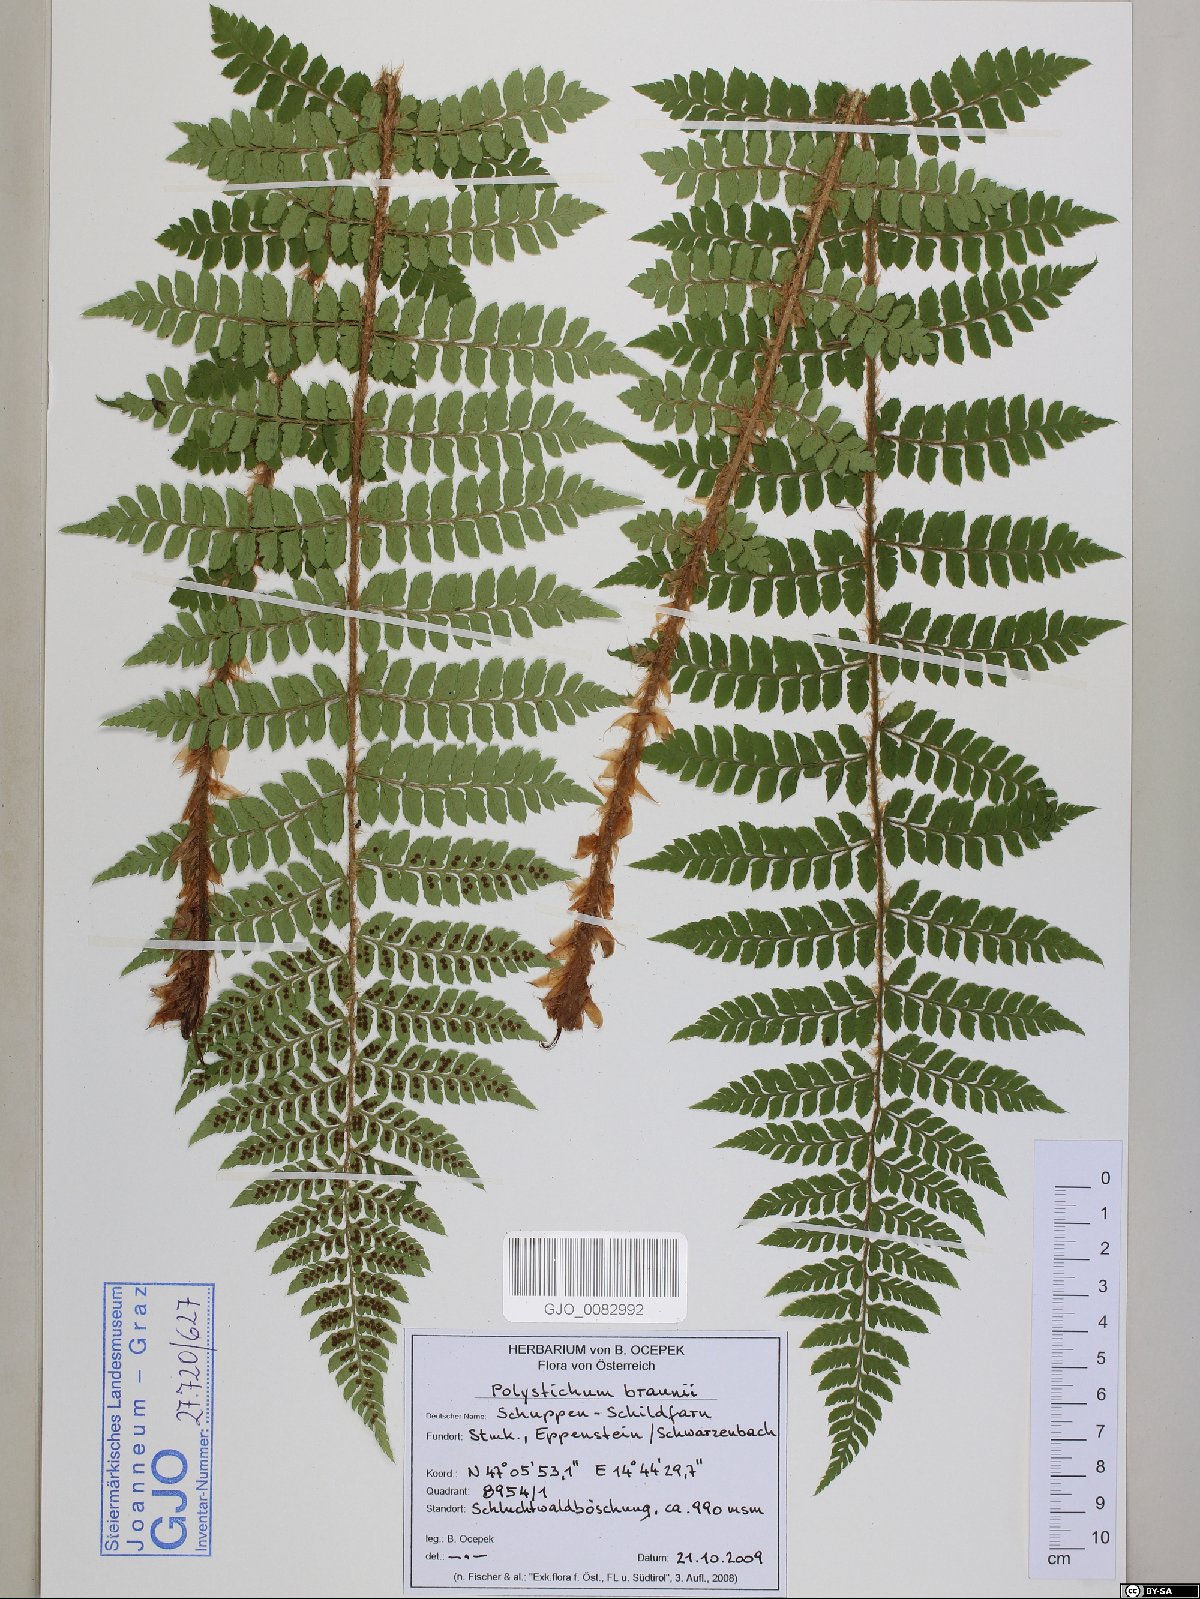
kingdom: Plantae
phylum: Tracheophyta
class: Polypodiopsida
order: Polypodiales
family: Dryopteridaceae
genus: Polystichum
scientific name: Polystichum braunii
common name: Braun's holly fern
